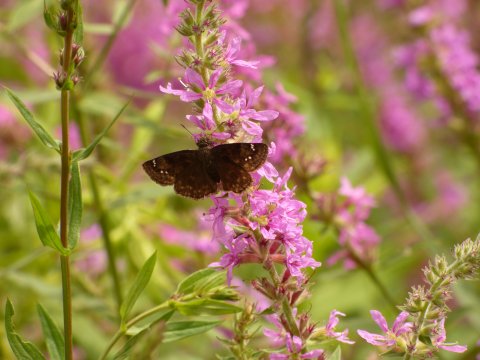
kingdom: Animalia
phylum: Arthropoda
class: Insecta
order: Lepidoptera
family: Hesperiidae
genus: Gesta
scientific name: Gesta
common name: Wild Indigo Duskywing
